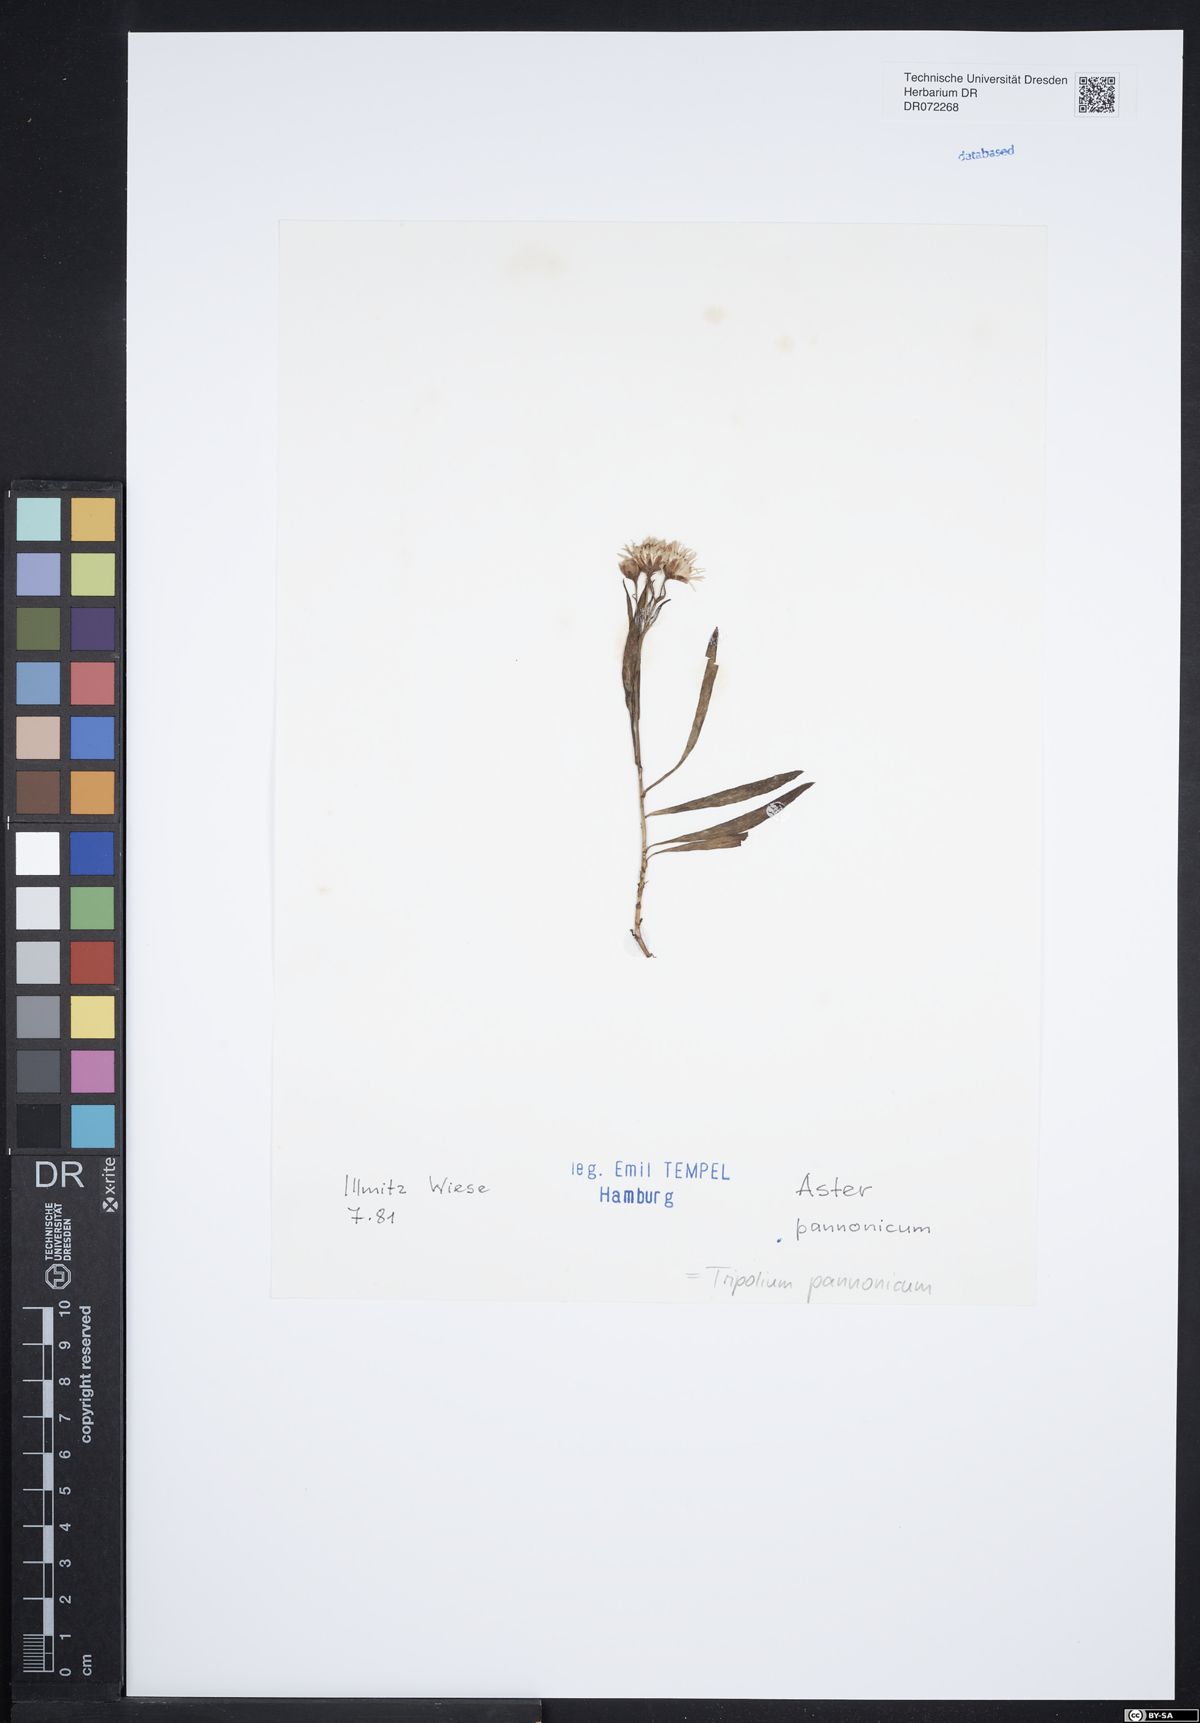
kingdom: Plantae
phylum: Tracheophyta
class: Magnoliopsida
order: Asterales
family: Asteraceae
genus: Tripolium
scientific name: Tripolium pannonicum
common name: Sea aster
